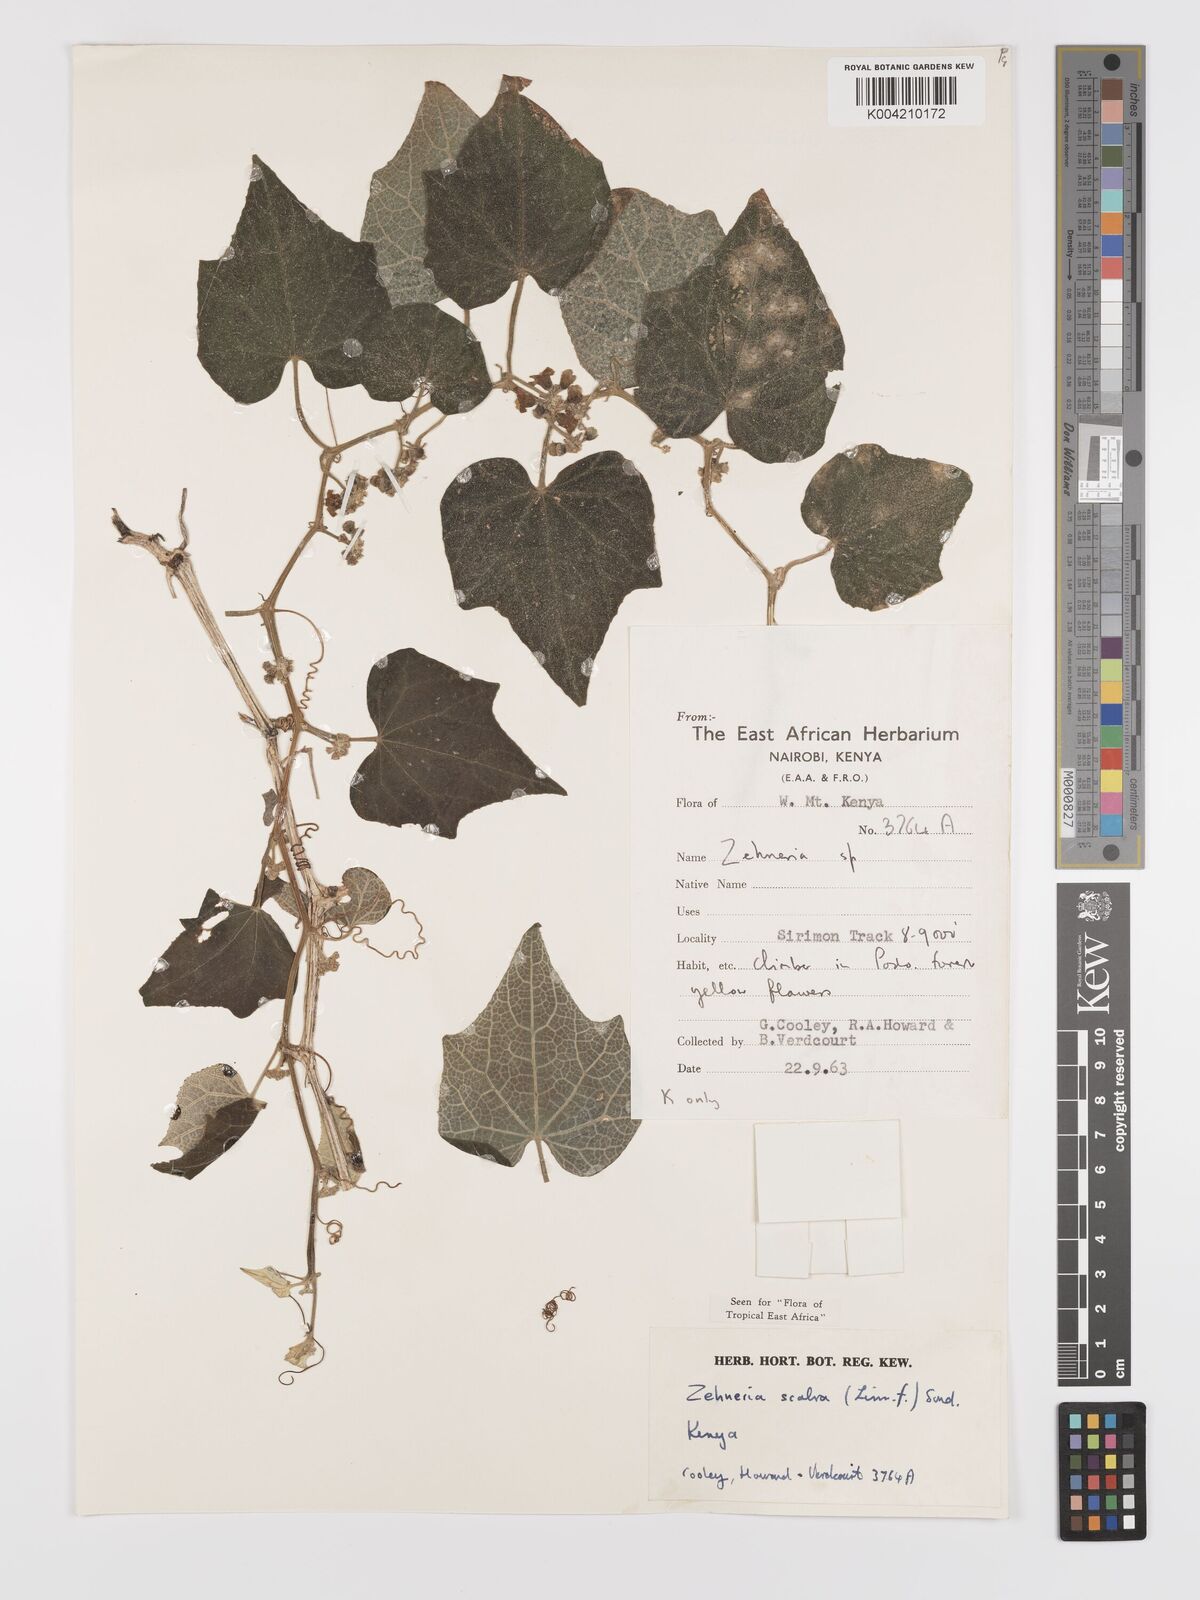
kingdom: Plantae
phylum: Tracheophyta
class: Magnoliopsida
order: Cucurbitales
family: Cucurbitaceae
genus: Zehneria
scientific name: Zehneria scabra
